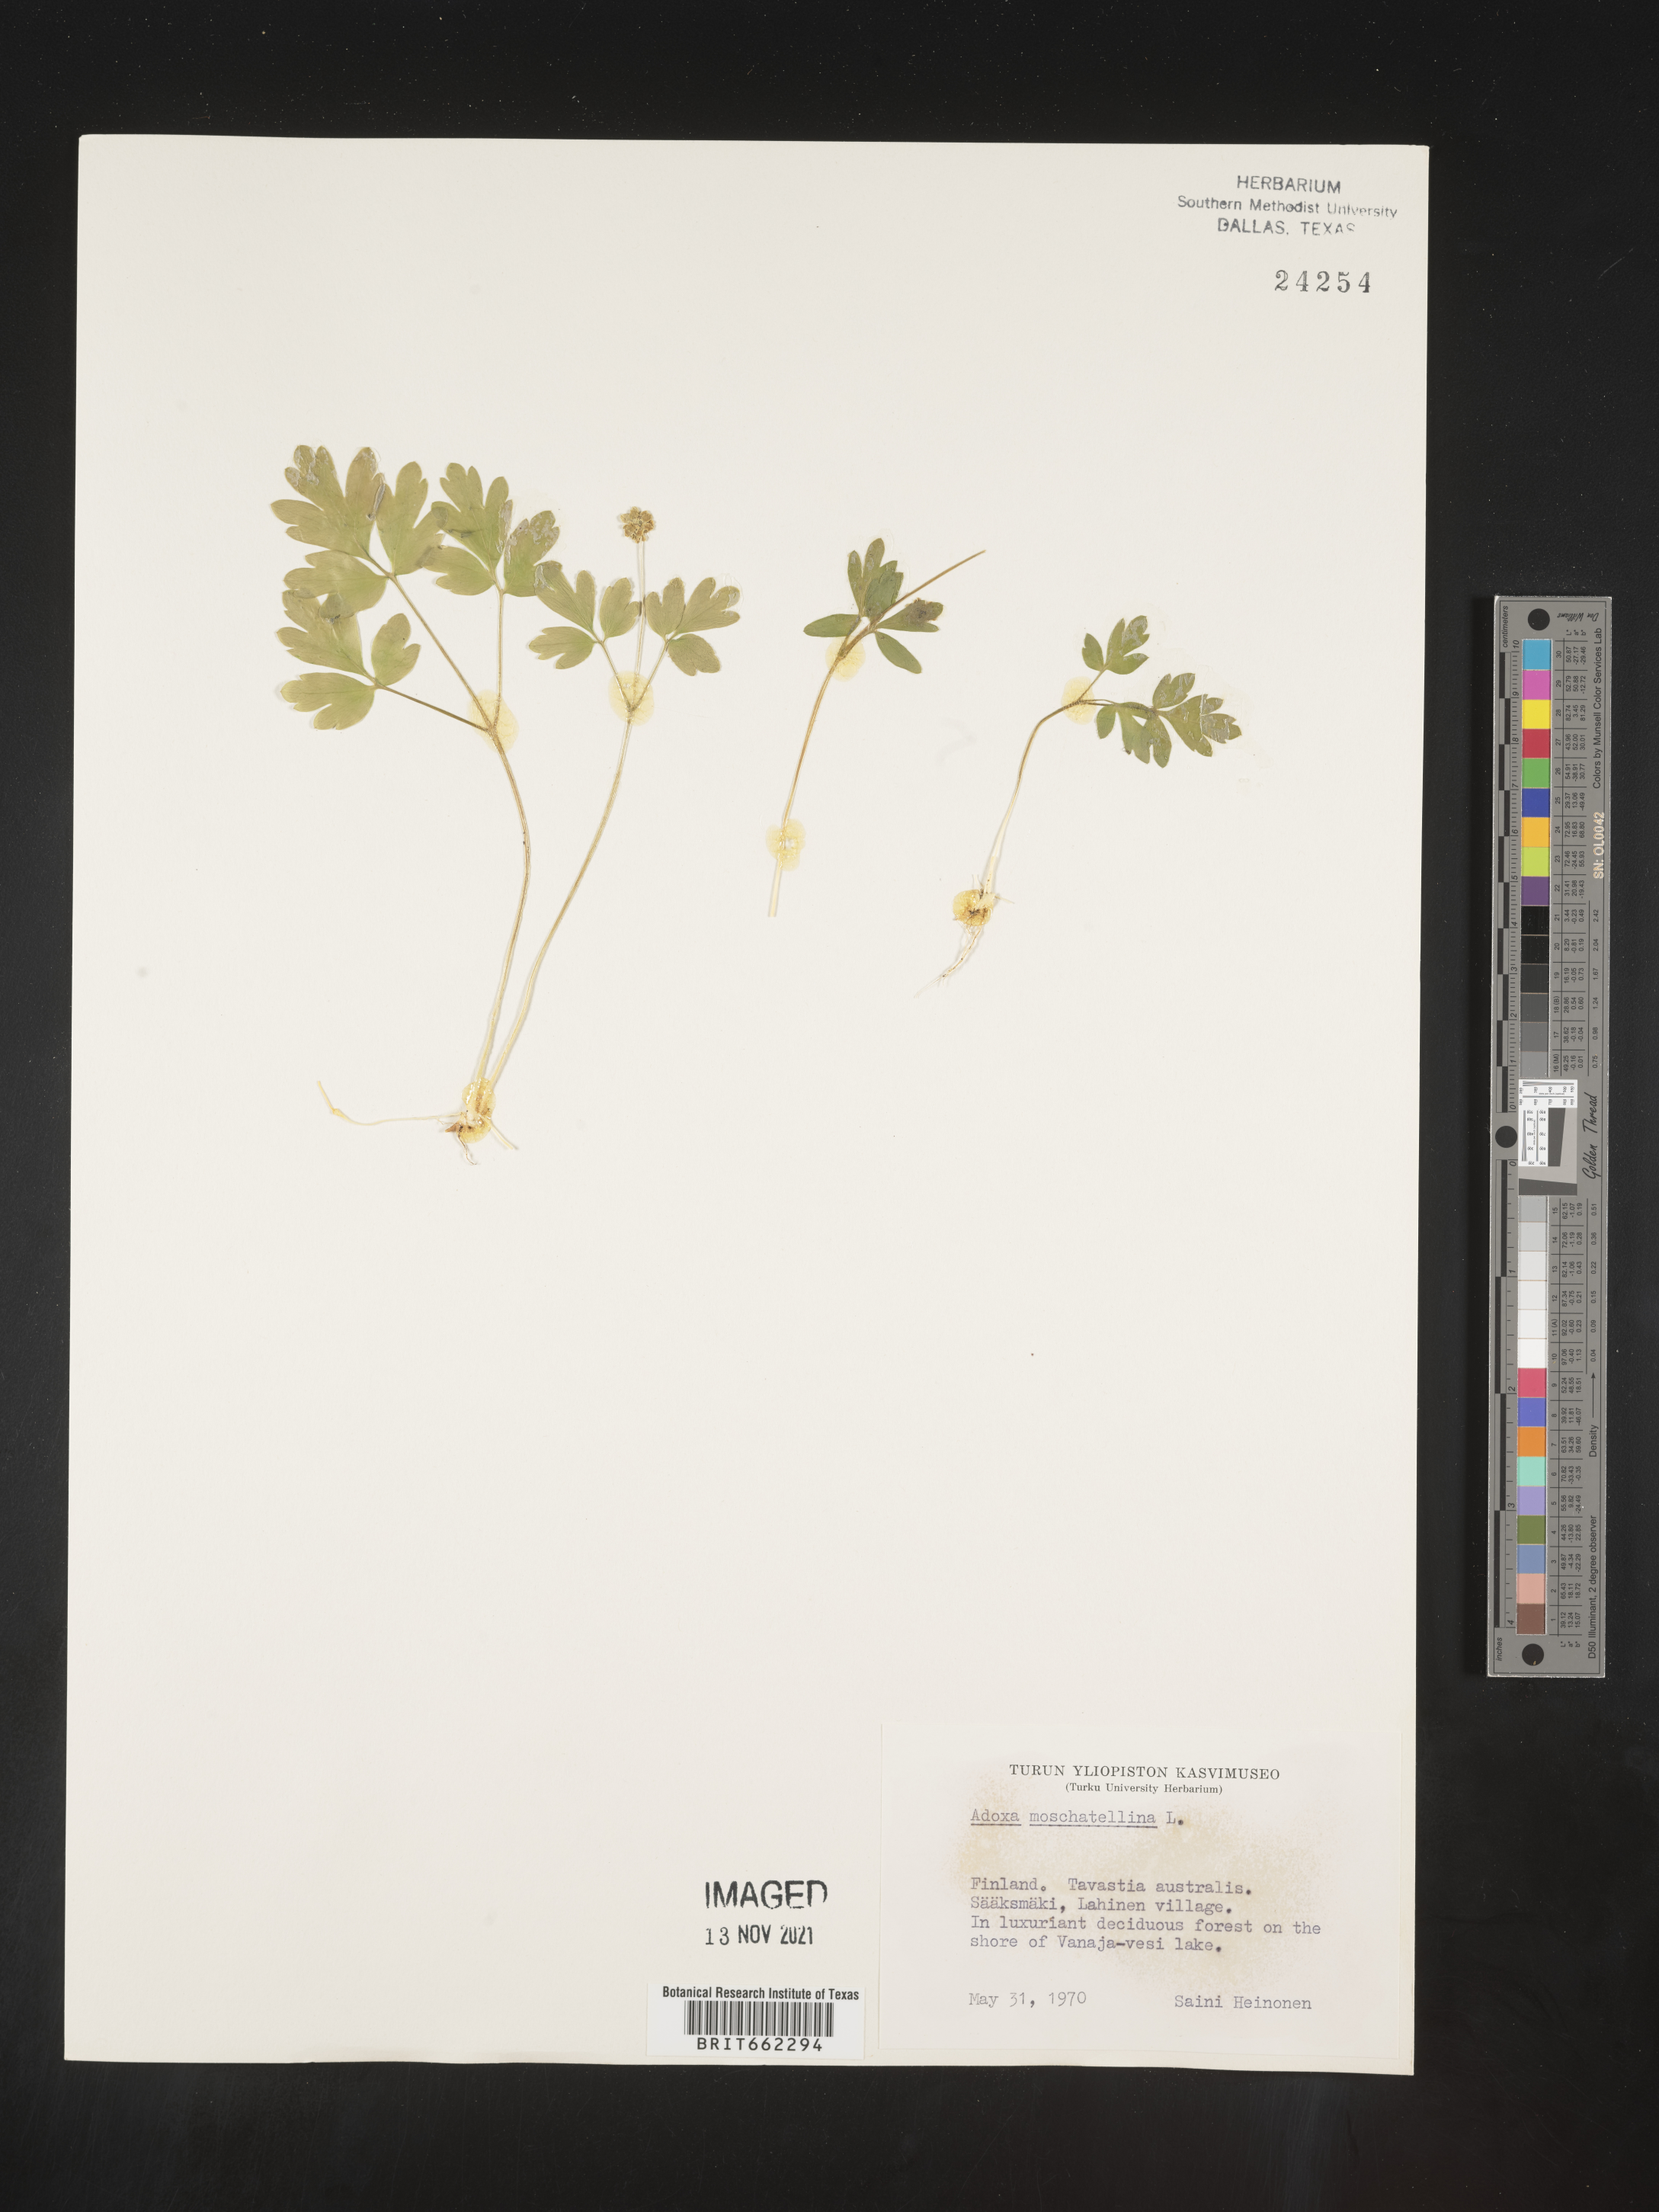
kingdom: Plantae
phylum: Tracheophyta
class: Magnoliopsida
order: Dipsacales
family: Viburnaceae
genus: Adoxa
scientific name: Adoxa
